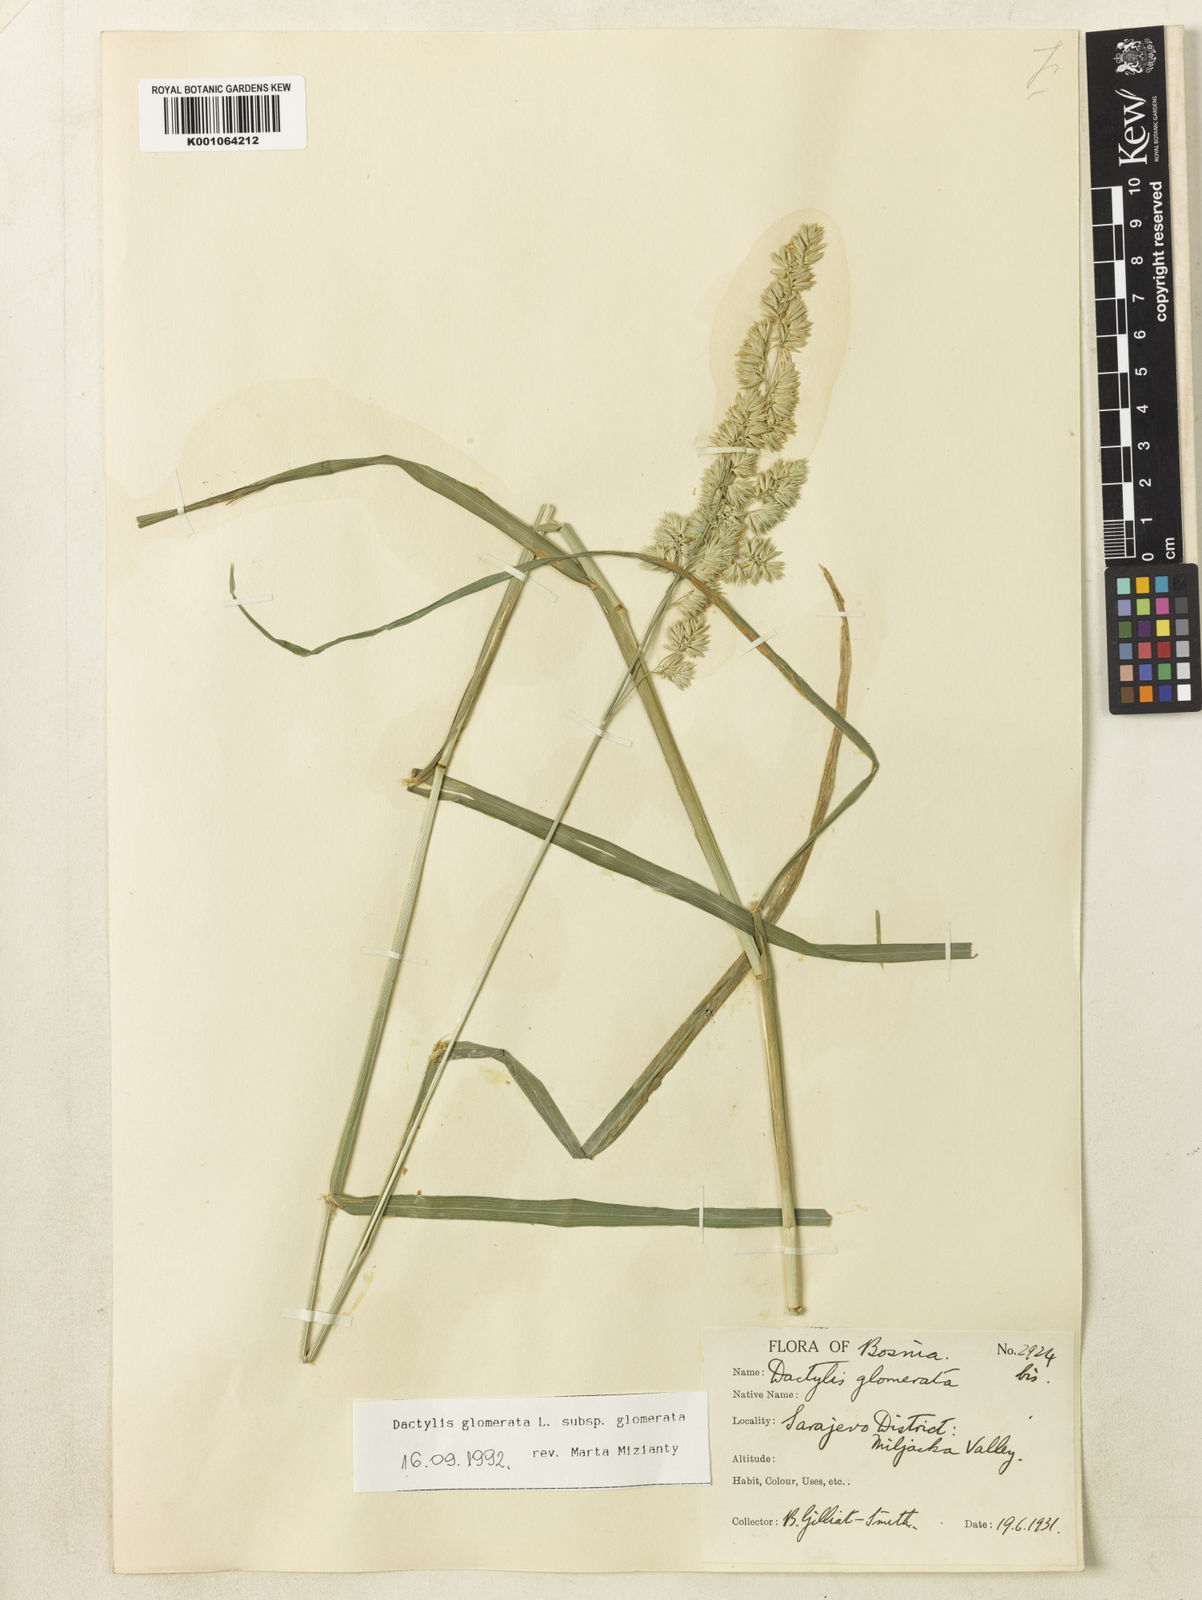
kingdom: Plantae
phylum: Tracheophyta
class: Liliopsida
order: Poales
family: Poaceae
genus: Dactylis
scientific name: Dactylis glomerata
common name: Orchardgrass
